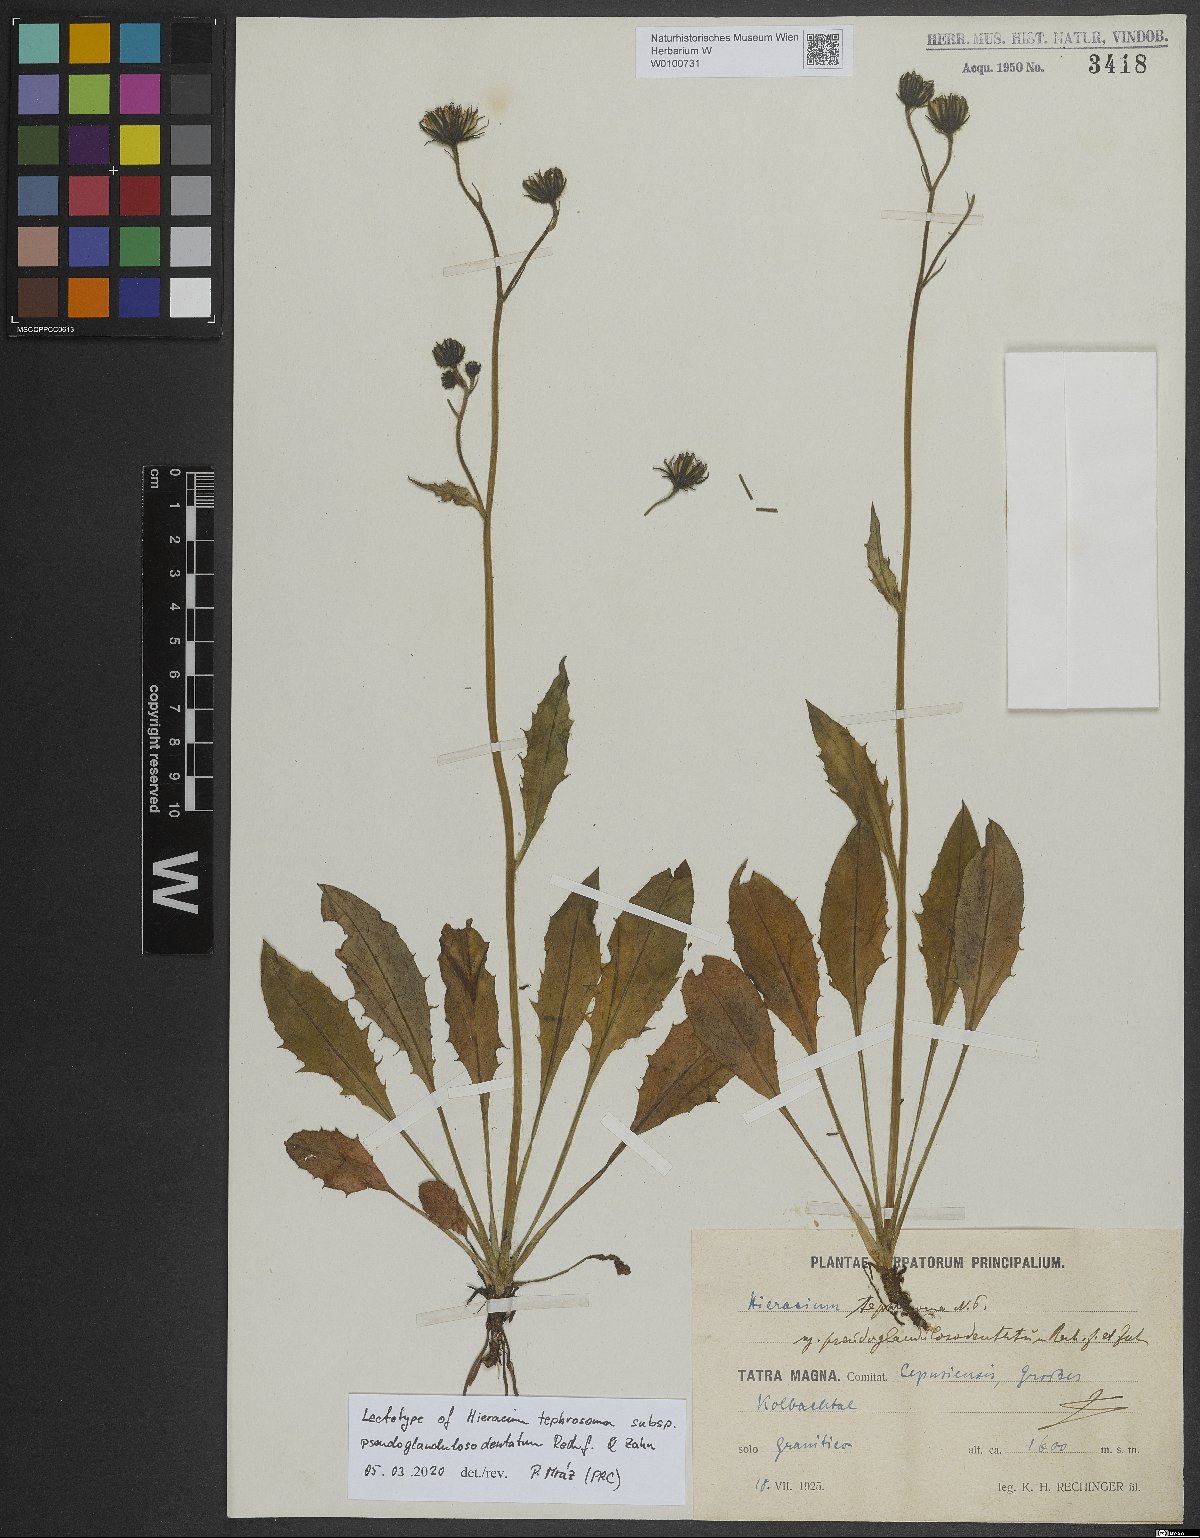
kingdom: Plantae
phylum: Tracheophyta
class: Magnoliopsida
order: Asterales
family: Asteraceae
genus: Hieracium
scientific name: Hieracium tephrosoma
